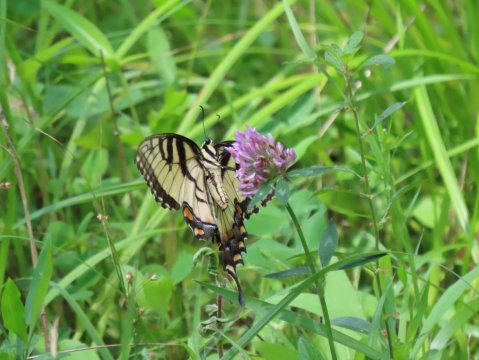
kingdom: Animalia
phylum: Arthropoda
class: Insecta
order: Lepidoptera
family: Papilionidae
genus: Pterourus
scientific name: Pterourus glaucus
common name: Eastern Tiger Swallowtail
